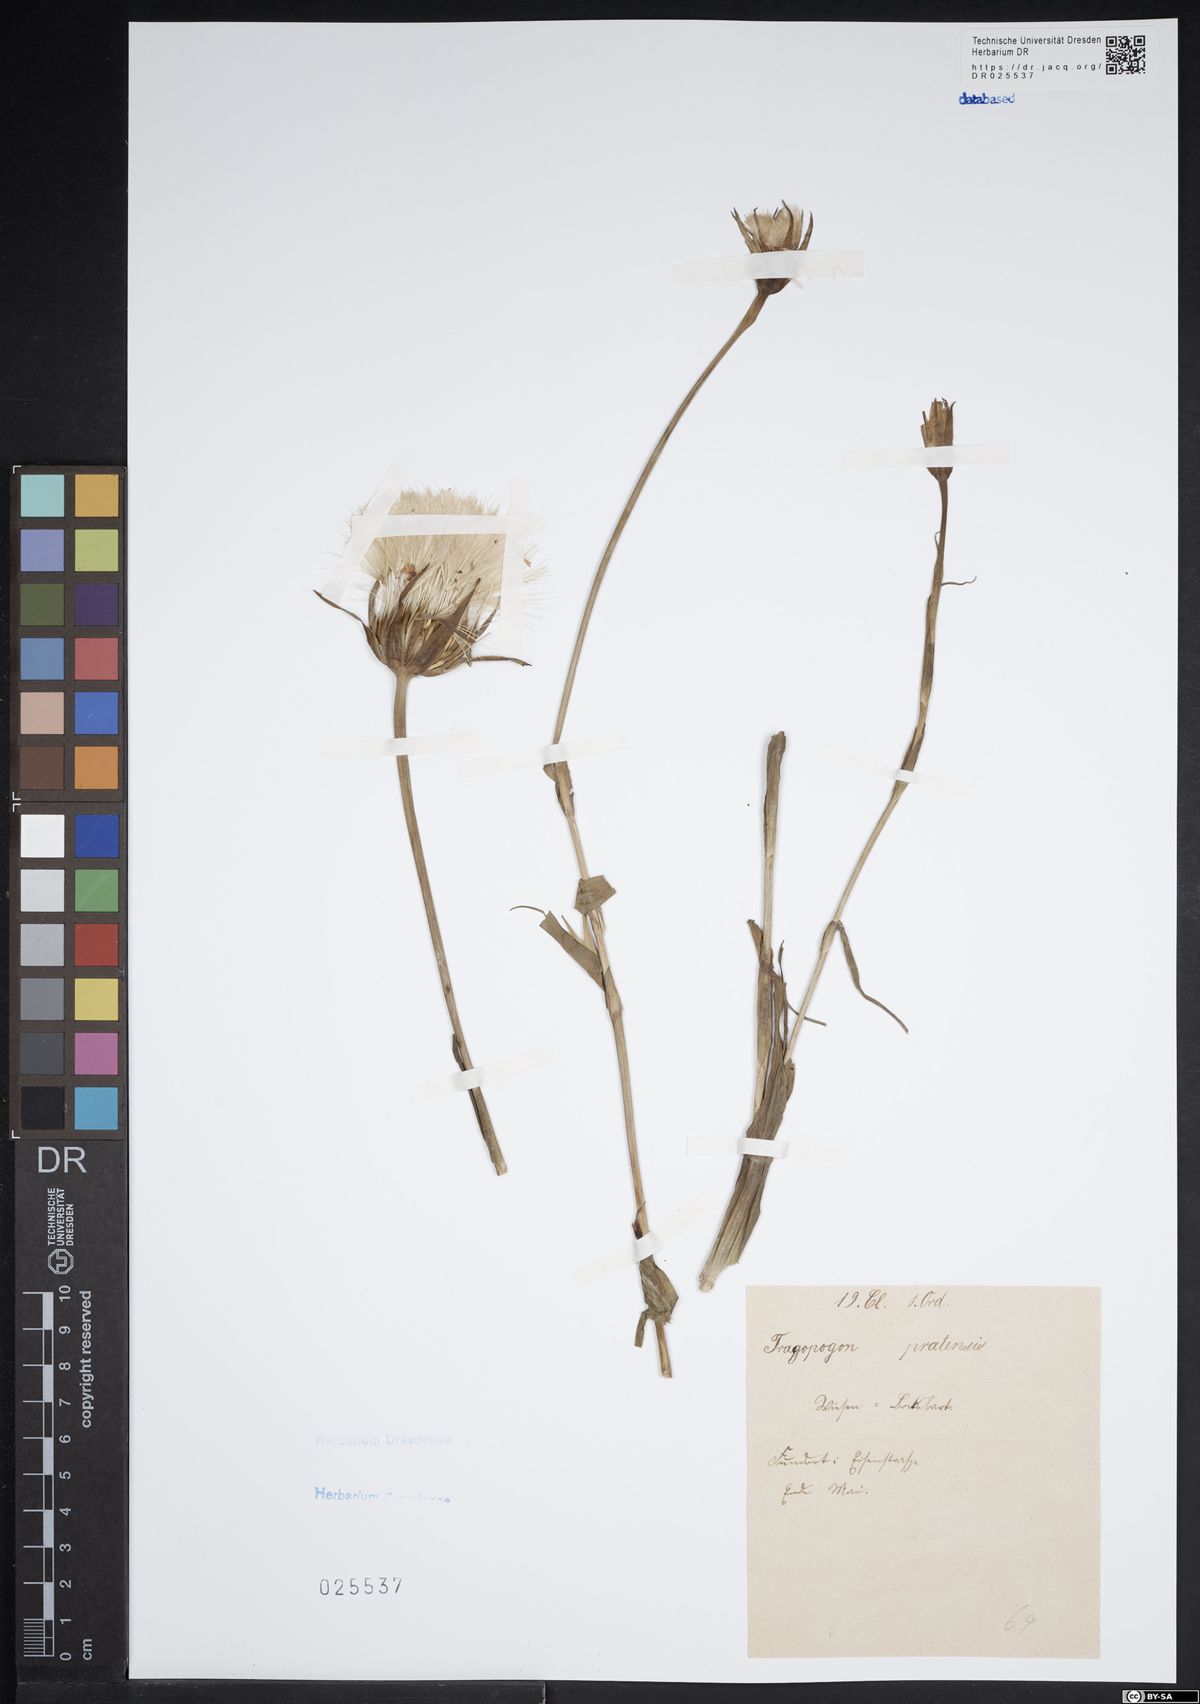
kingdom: Plantae
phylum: Tracheophyta
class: Magnoliopsida
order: Asterales
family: Asteraceae
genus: Tragopogon
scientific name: Tragopogon pratensis
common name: Goat's-beard
